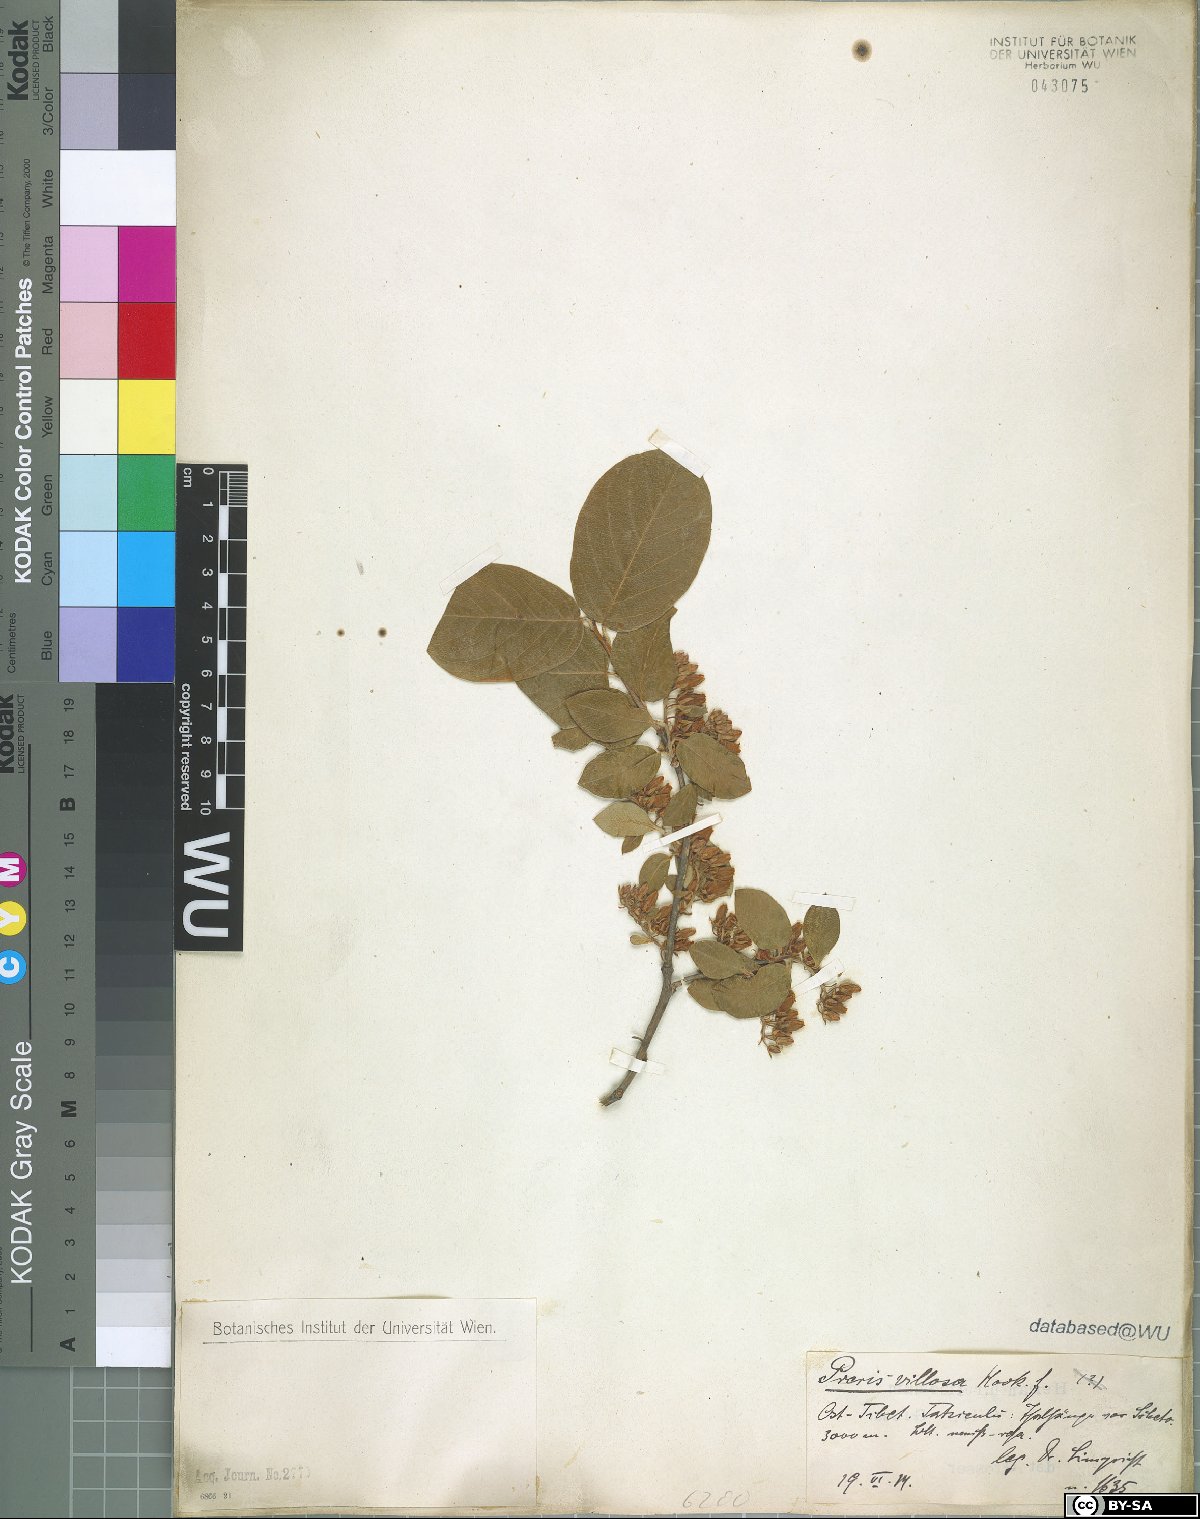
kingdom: Plantae
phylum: Tracheophyta
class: Magnoliopsida
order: Ericales
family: Ericaceae
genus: Lyonia
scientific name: Lyonia villosa
